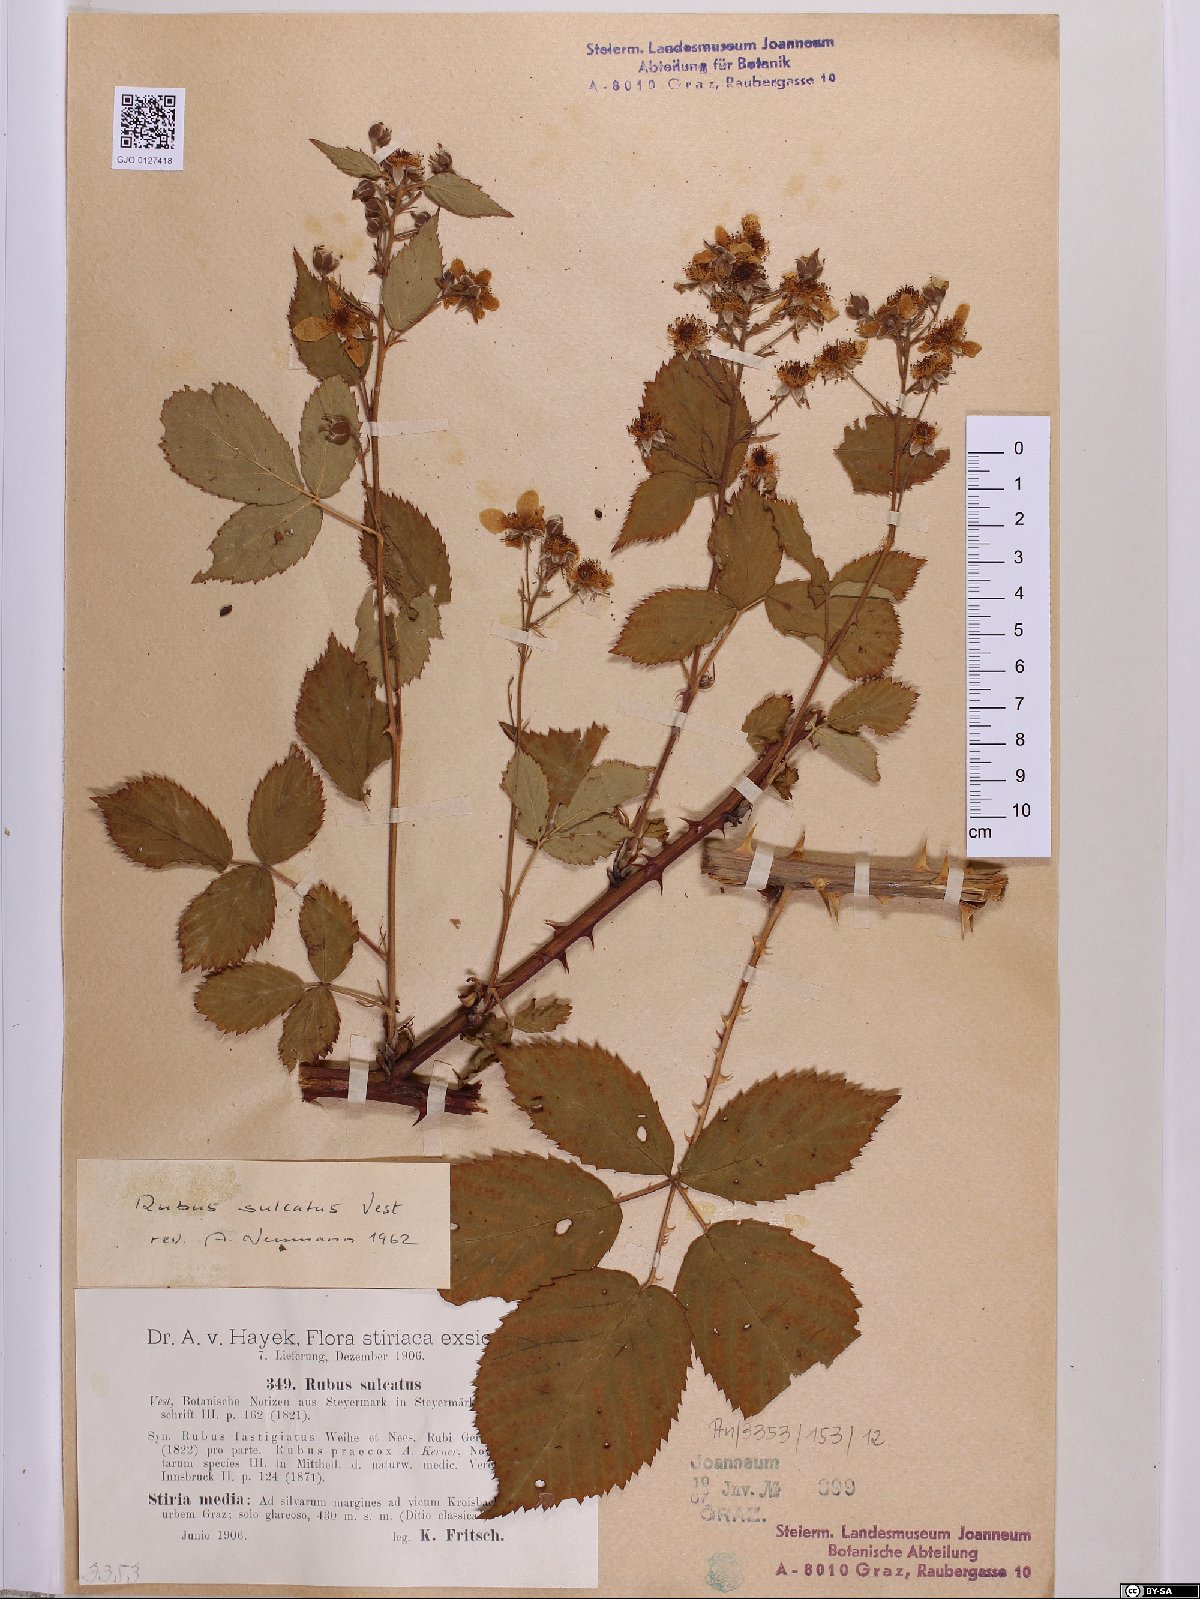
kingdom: Plantae
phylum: Tracheophyta
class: Magnoliopsida
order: Rosales
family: Rosaceae
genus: Rubus
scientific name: Rubus sulcatus
